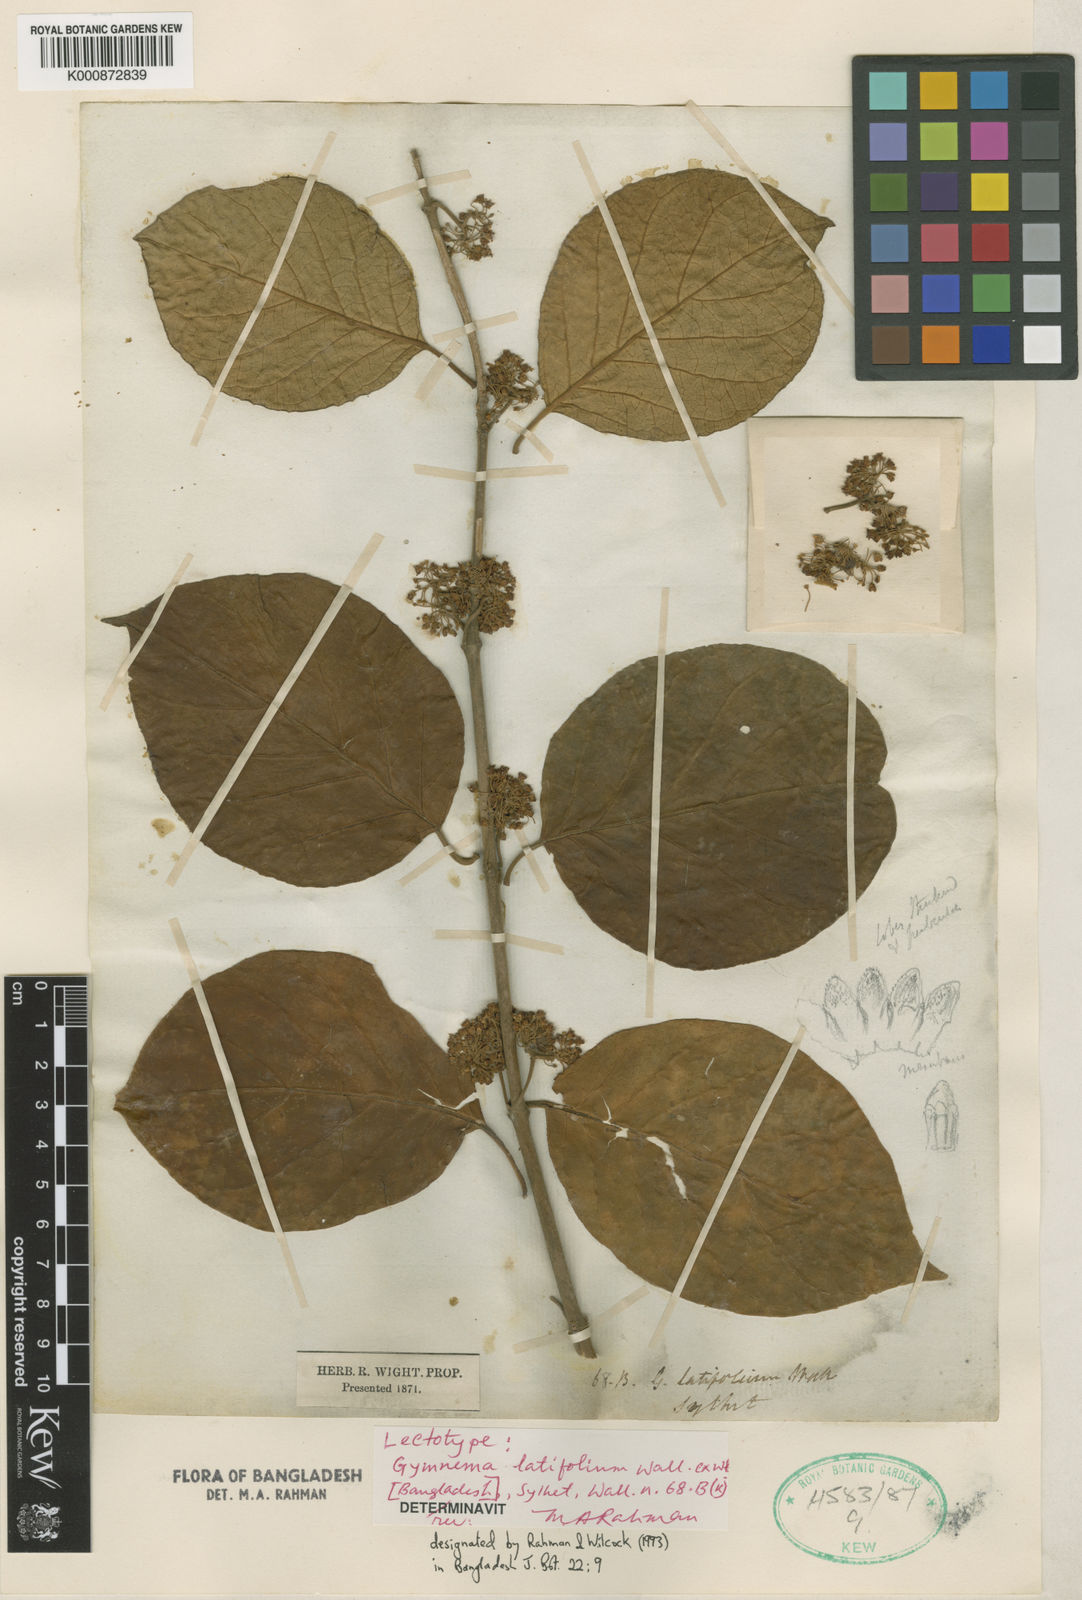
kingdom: Plantae
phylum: Tracheophyta
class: Magnoliopsida
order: Gentianales
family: Apocynaceae
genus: Gymnema
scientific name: Gymnema latifolium
